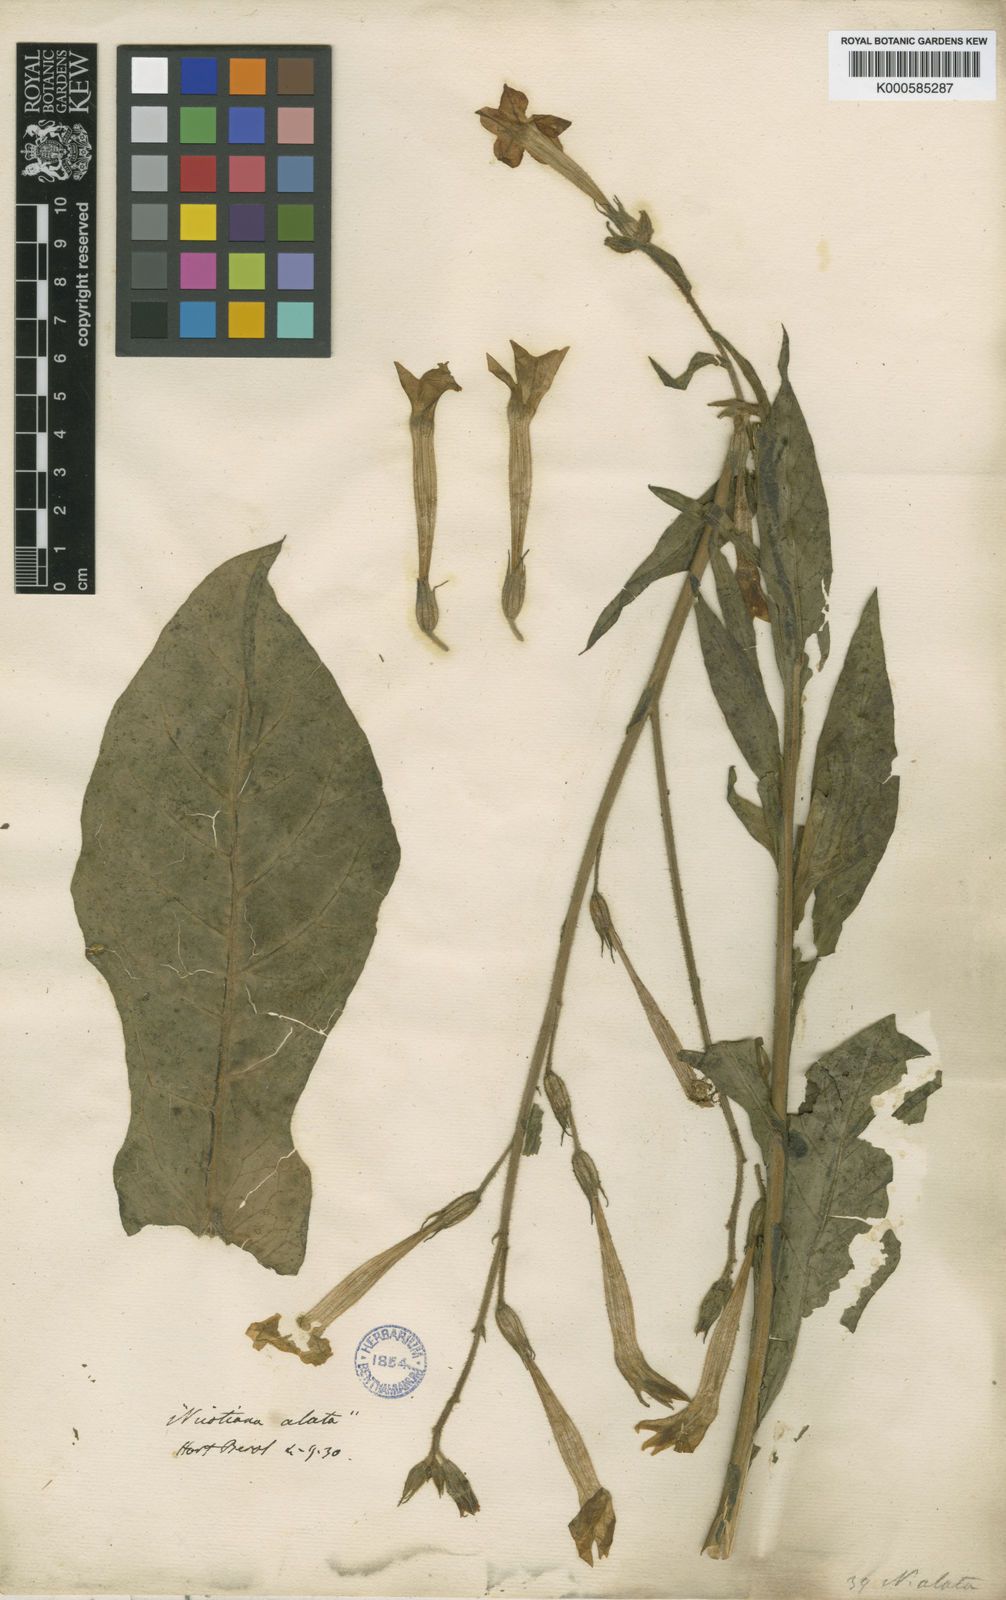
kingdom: Plantae
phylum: Tracheophyta
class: Magnoliopsida
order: Solanales
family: Solanaceae
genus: Nicotiana
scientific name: Nicotiana alata
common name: Jasmine tobacco
